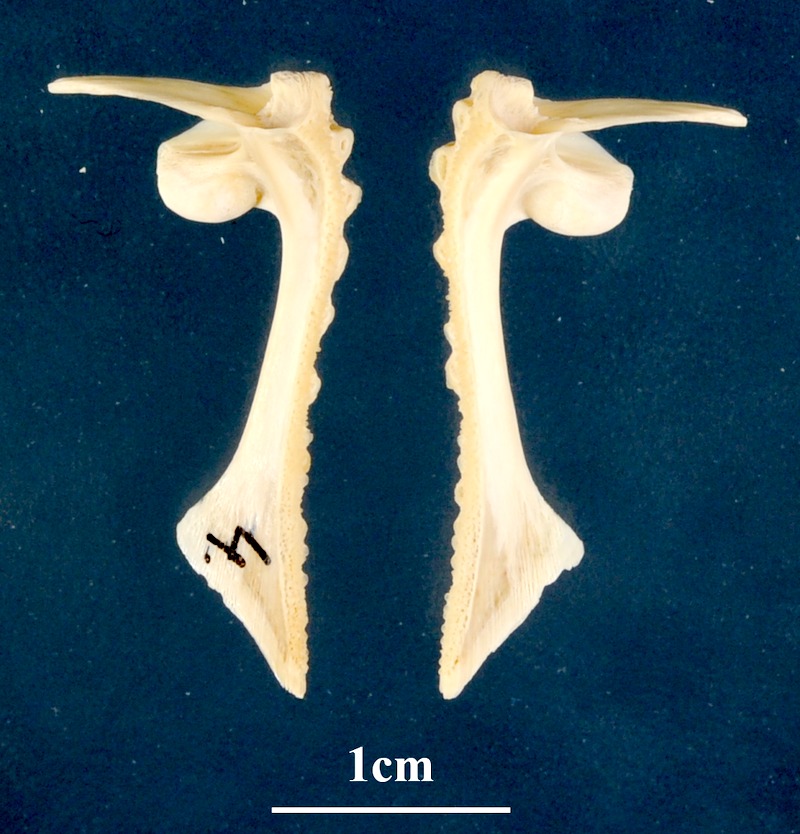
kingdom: Animalia
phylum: Chordata
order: Perciformes
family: Sciaenidae
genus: Sciaena
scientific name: Sciaena umbra
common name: Brown meagre
